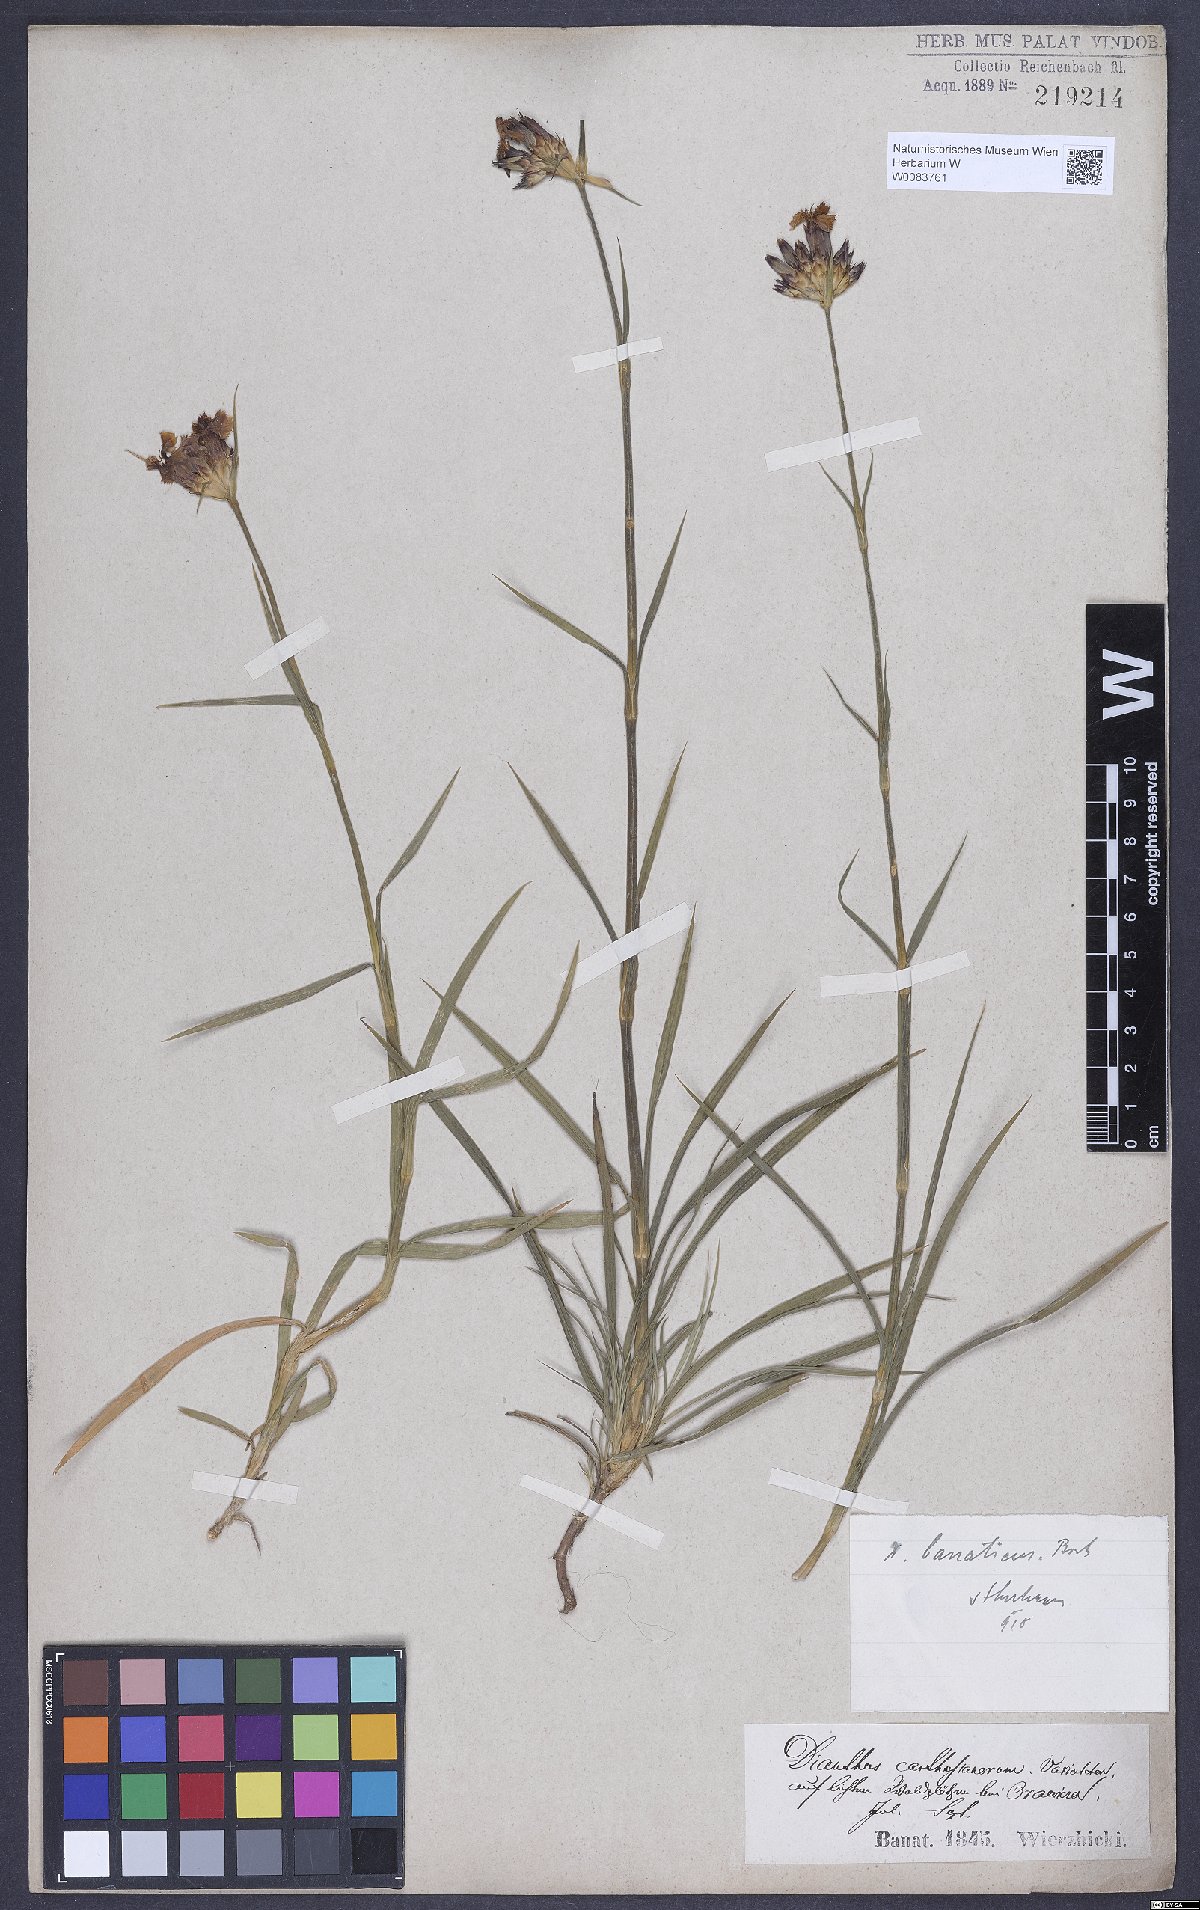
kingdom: Plantae
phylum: Tracheophyta
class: Magnoliopsida
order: Caryophyllales
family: Caryophyllaceae
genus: Dianthus
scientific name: Dianthus giganteus
